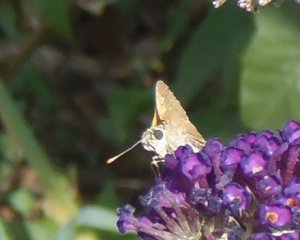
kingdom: Animalia
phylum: Arthropoda
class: Insecta
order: Lepidoptera
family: Hesperiidae
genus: Polites
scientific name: Polites themistocles
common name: Tawny-edged Skipper
